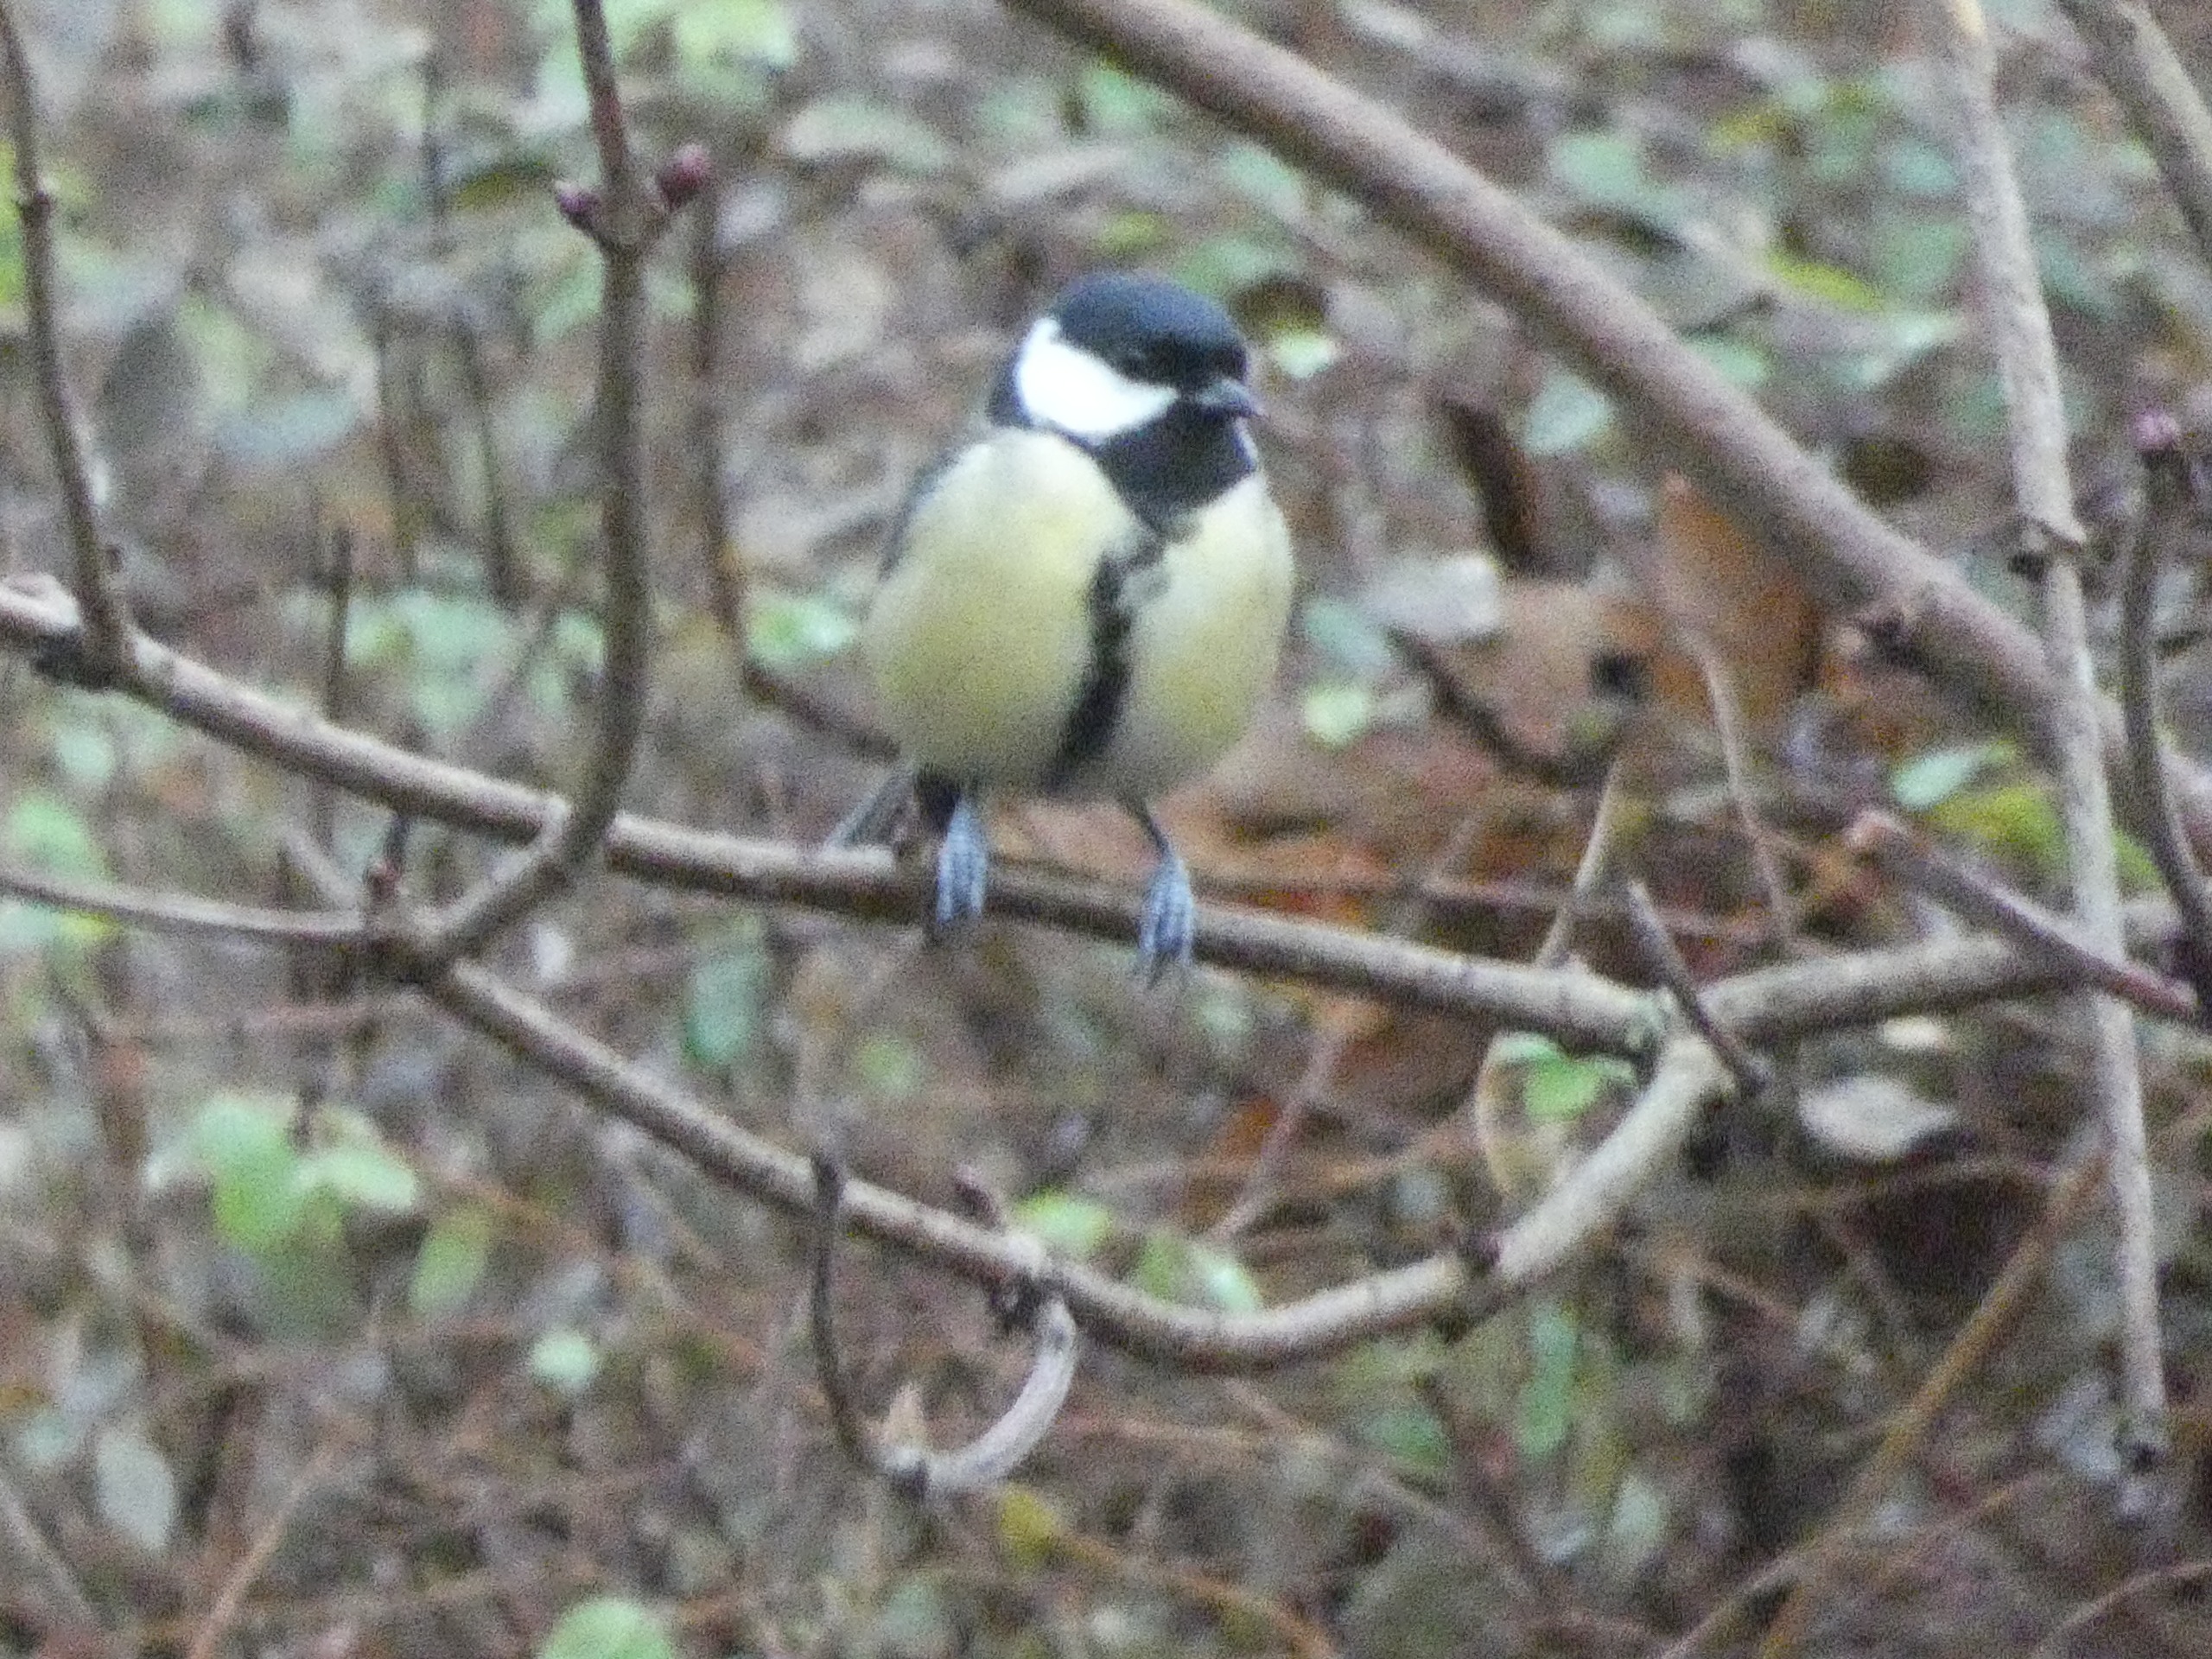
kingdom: Animalia
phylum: Chordata
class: Aves
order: Passeriformes
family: Paridae
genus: Parus
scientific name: Parus major
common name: Musvit
